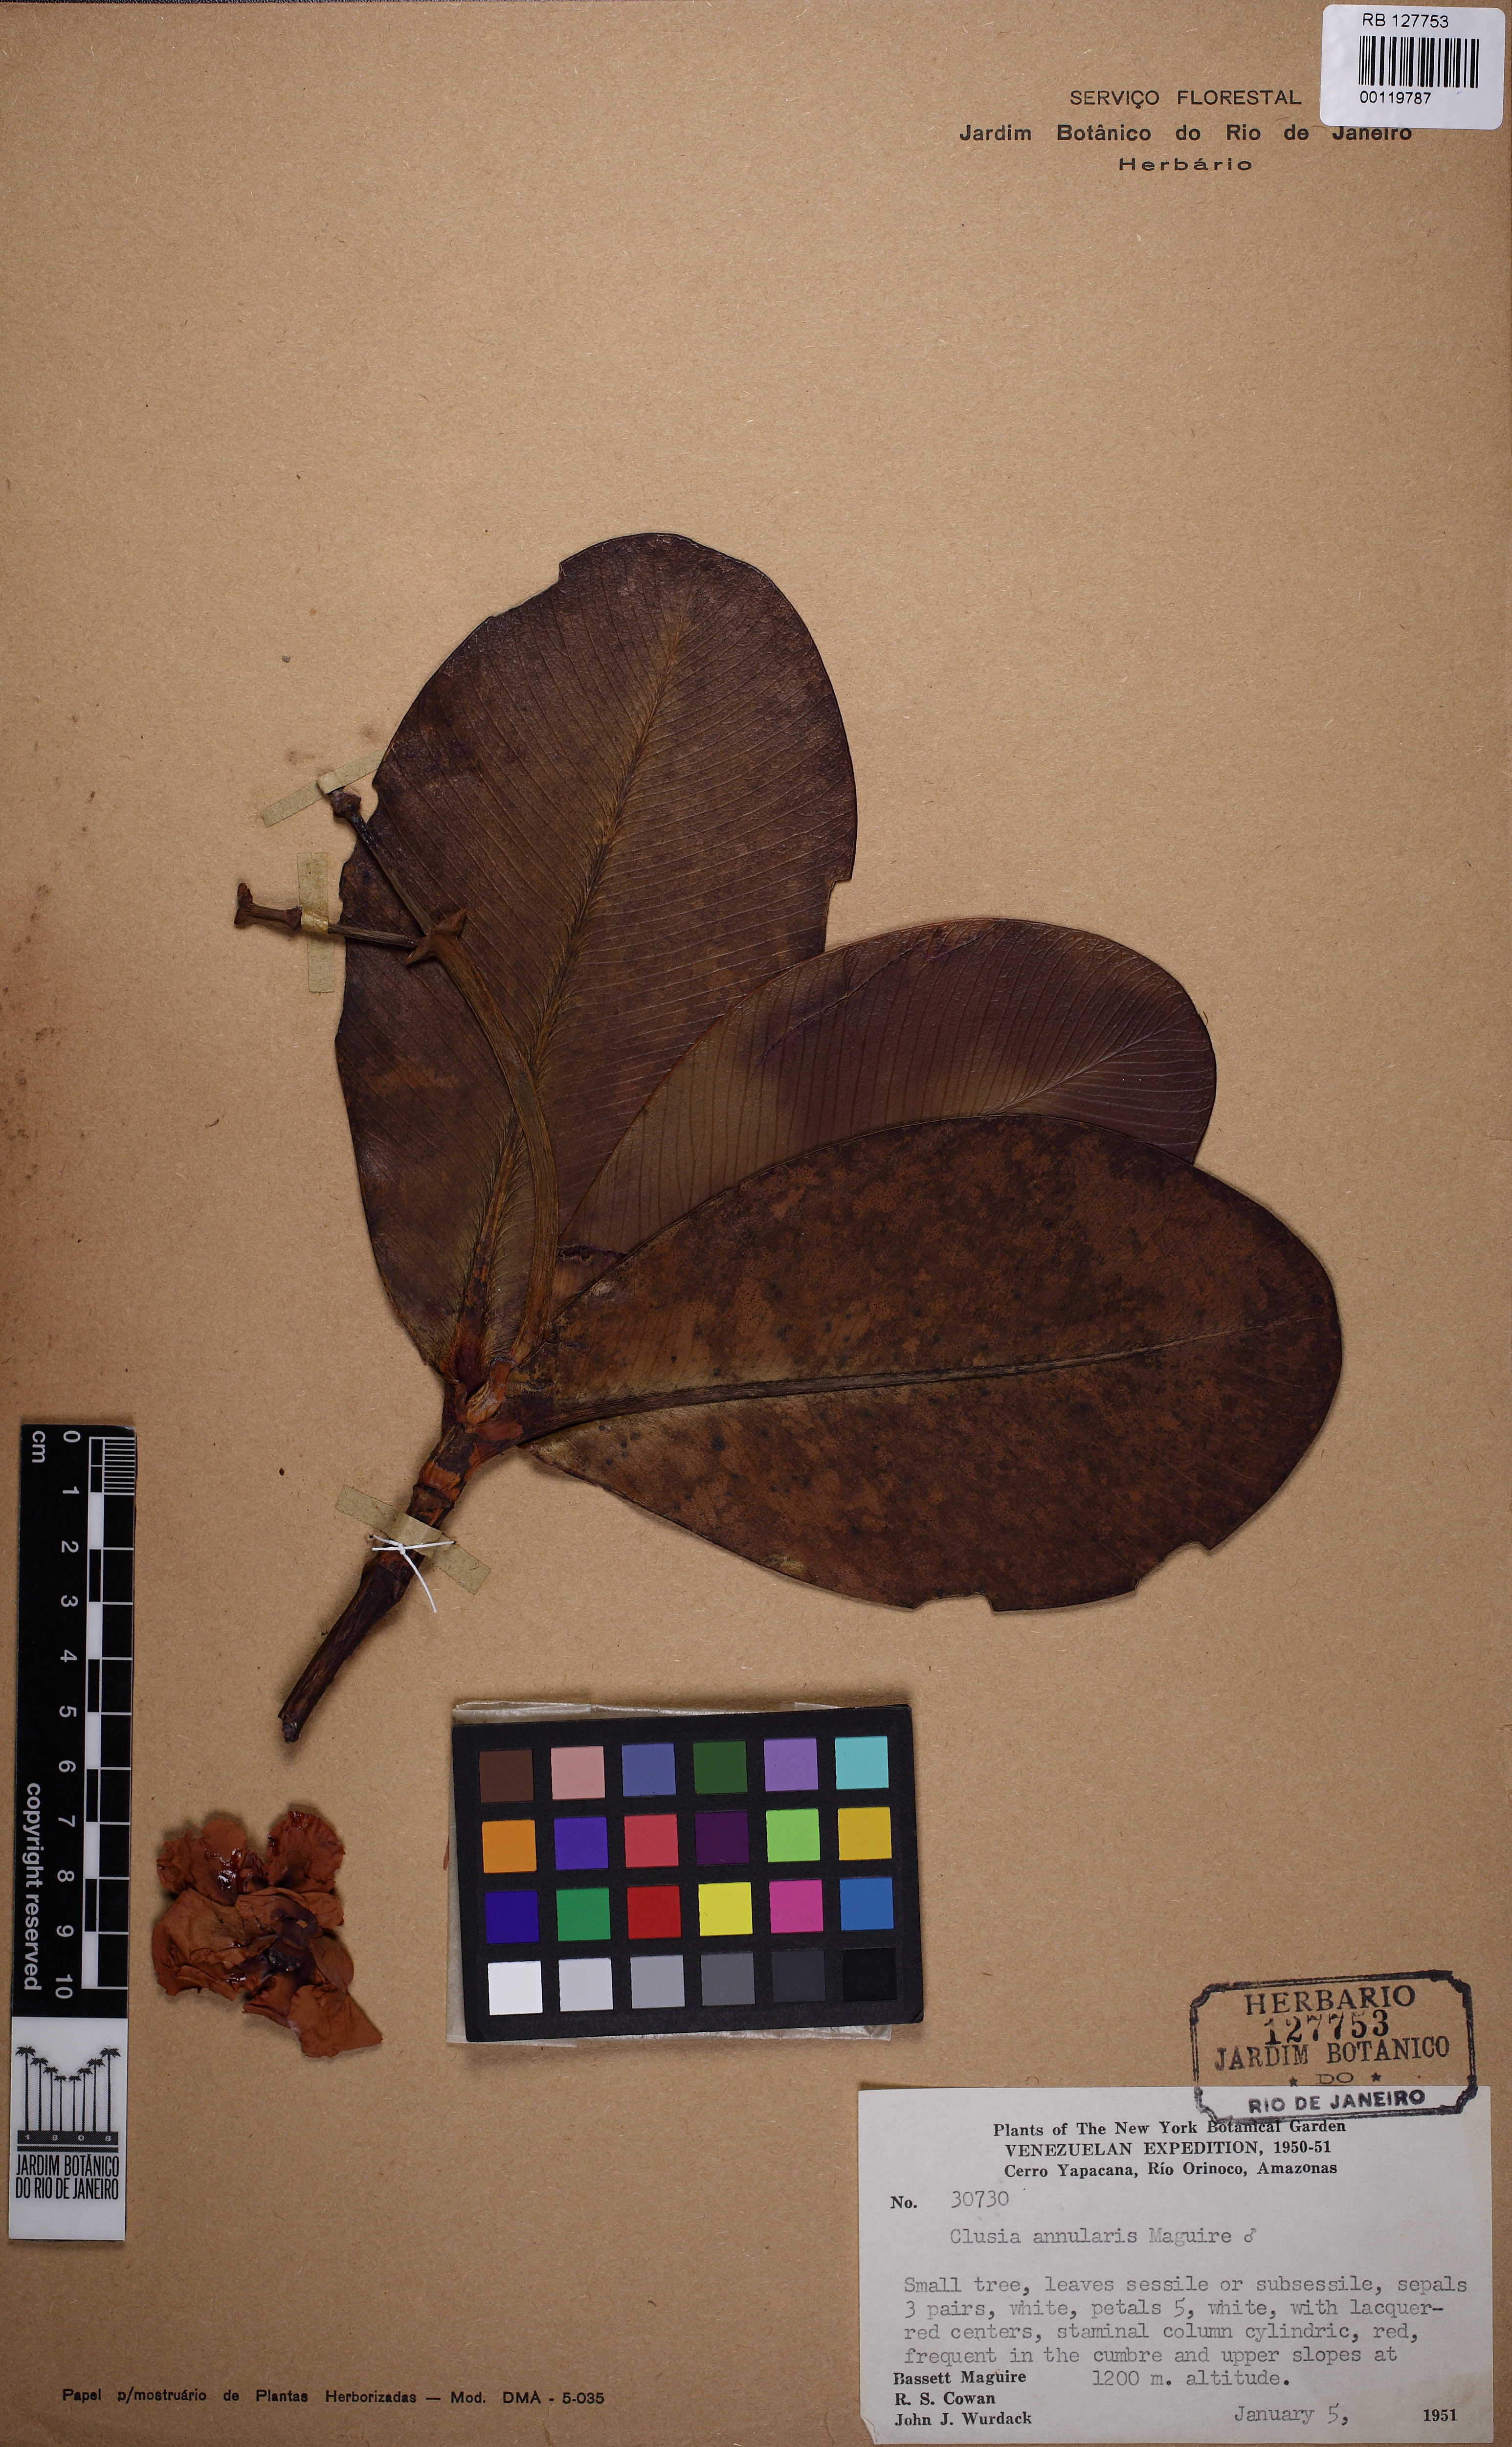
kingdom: Plantae
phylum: Tracheophyta
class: Magnoliopsida
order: Malpighiales
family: Clusiaceae
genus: Clusia
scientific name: Clusia annularis
